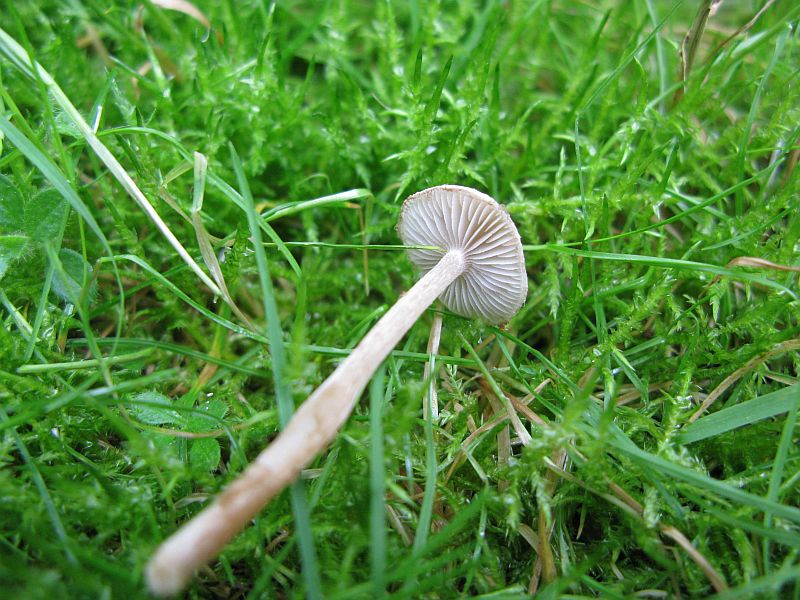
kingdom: Fungi
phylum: Basidiomycota
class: Agaricomycetes
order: Agaricales
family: Inocybaceae
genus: Inocybe
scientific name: Inocybe curvipes
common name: plæne-trævlhat
